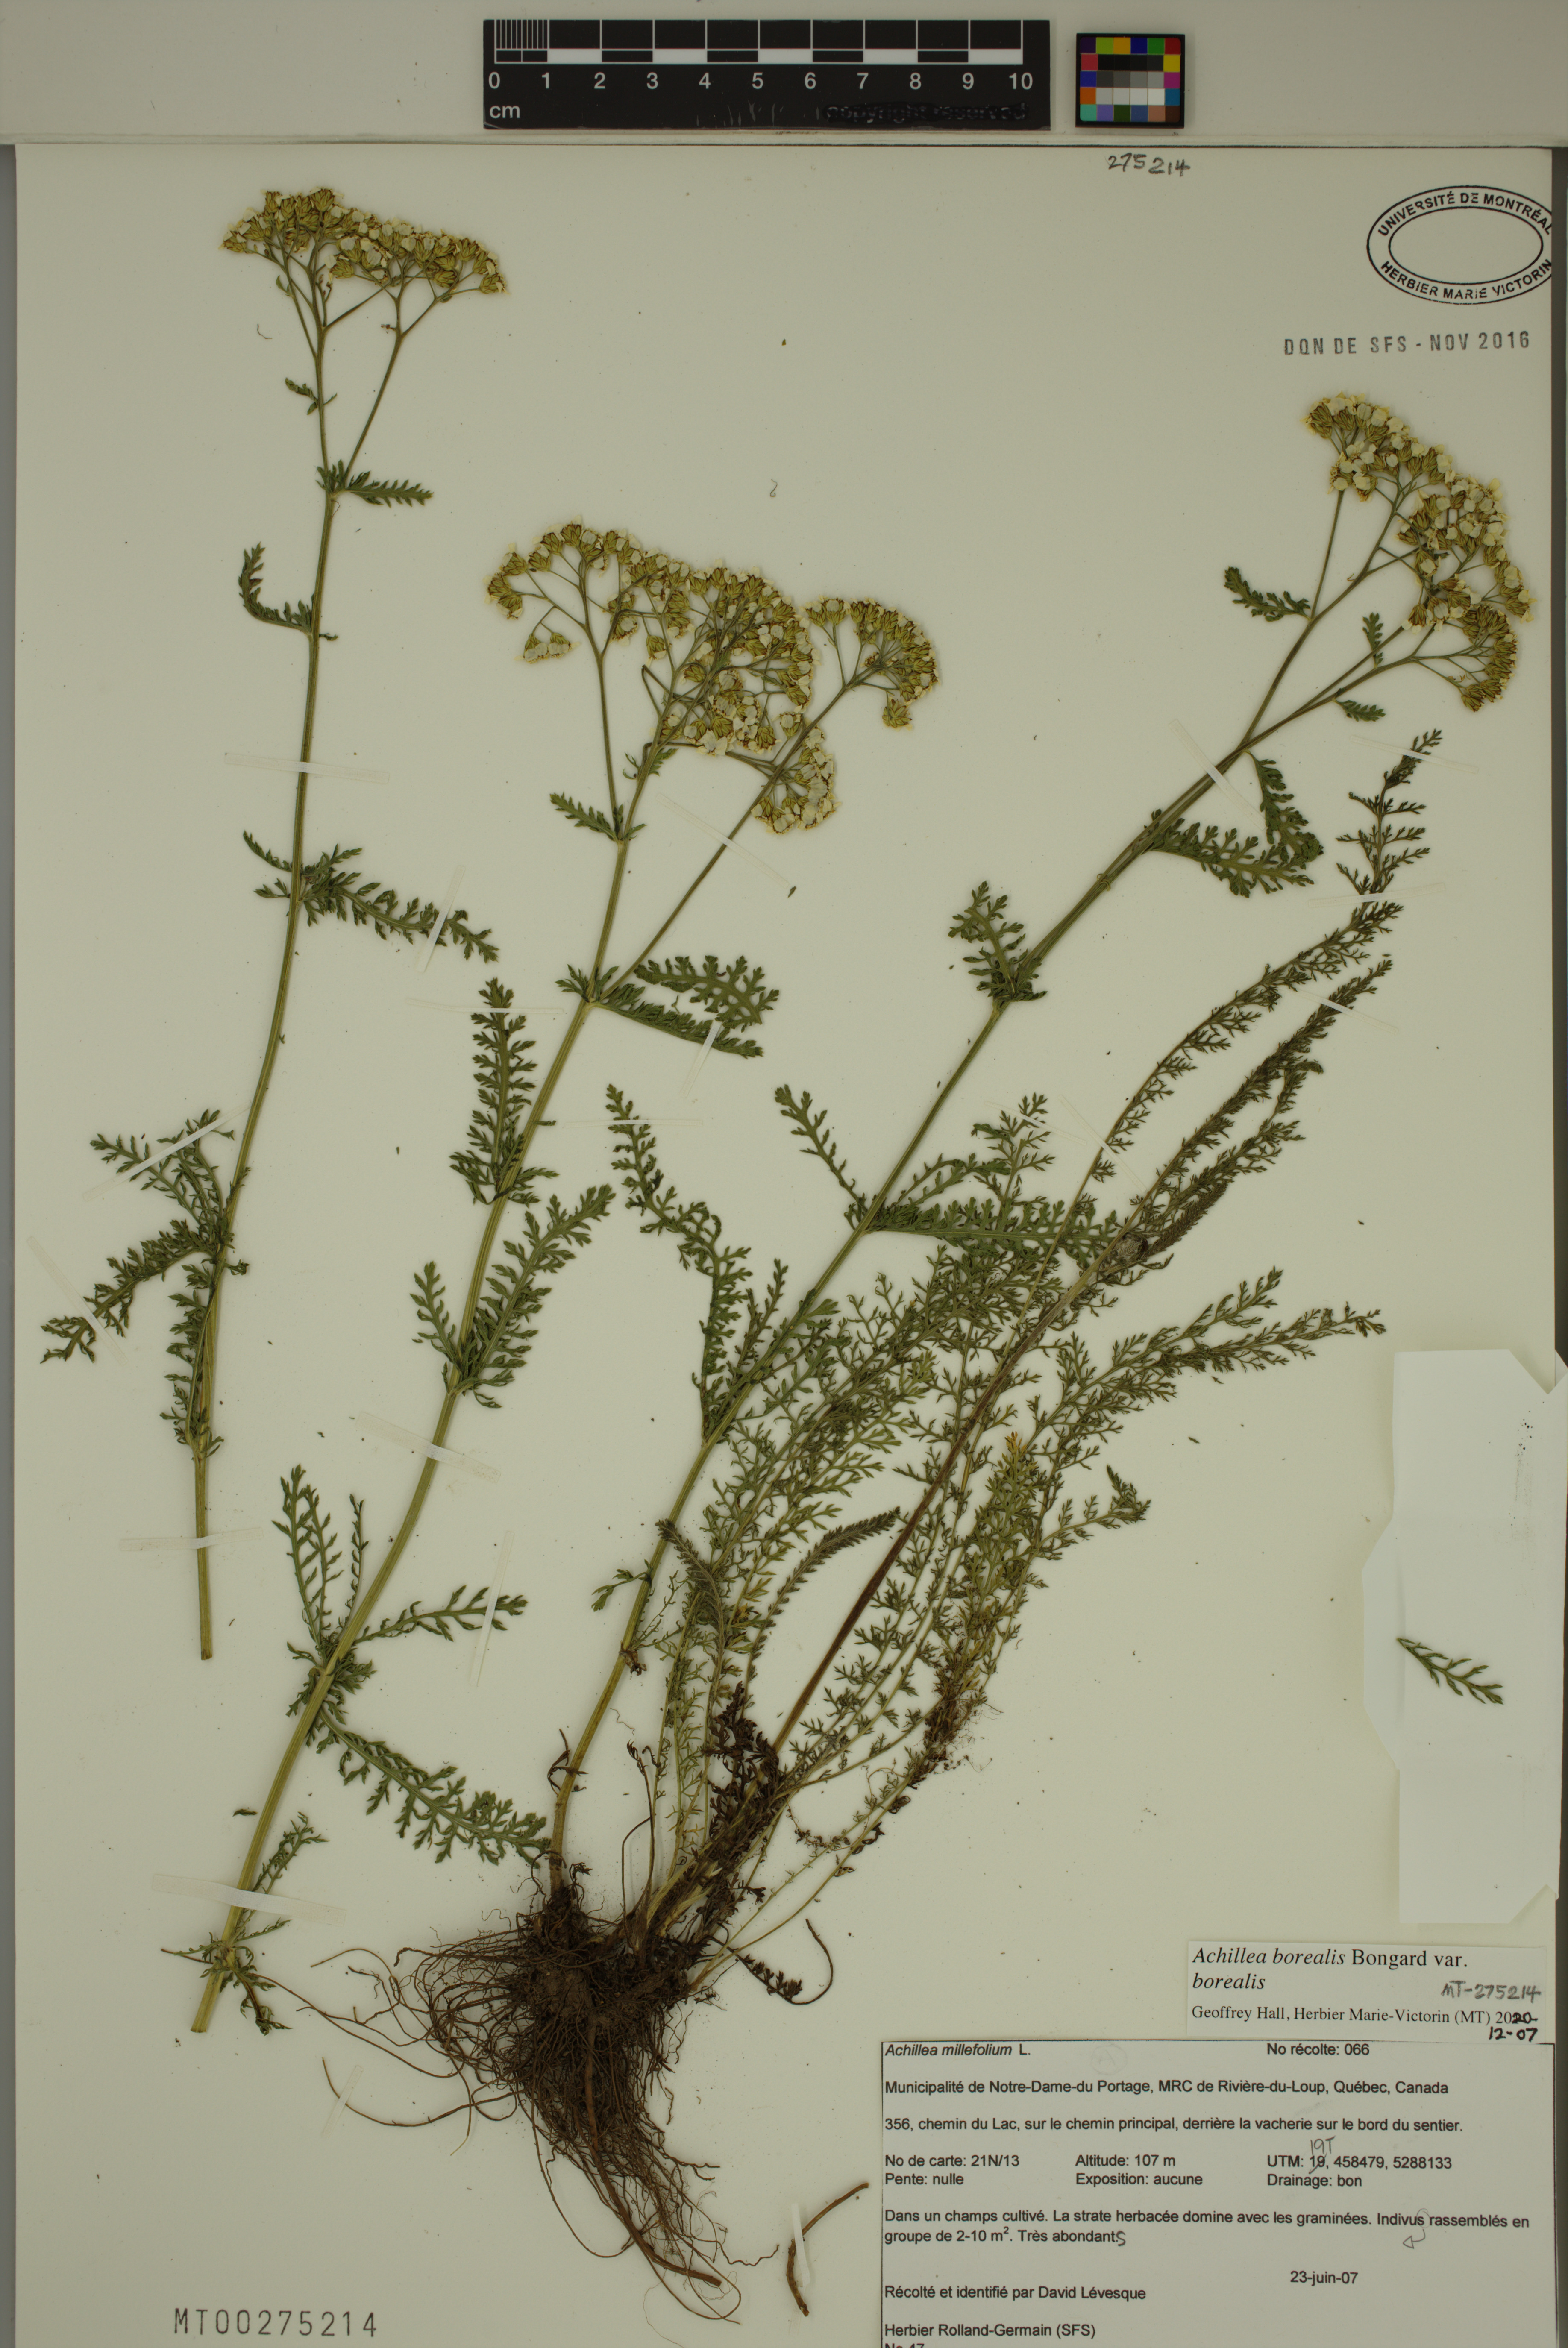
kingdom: Plantae
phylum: Tracheophyta
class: Magnoliopsida
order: Asterales
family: Asteraceae
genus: Achillea
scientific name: Achillea millefolium
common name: Yarrow
